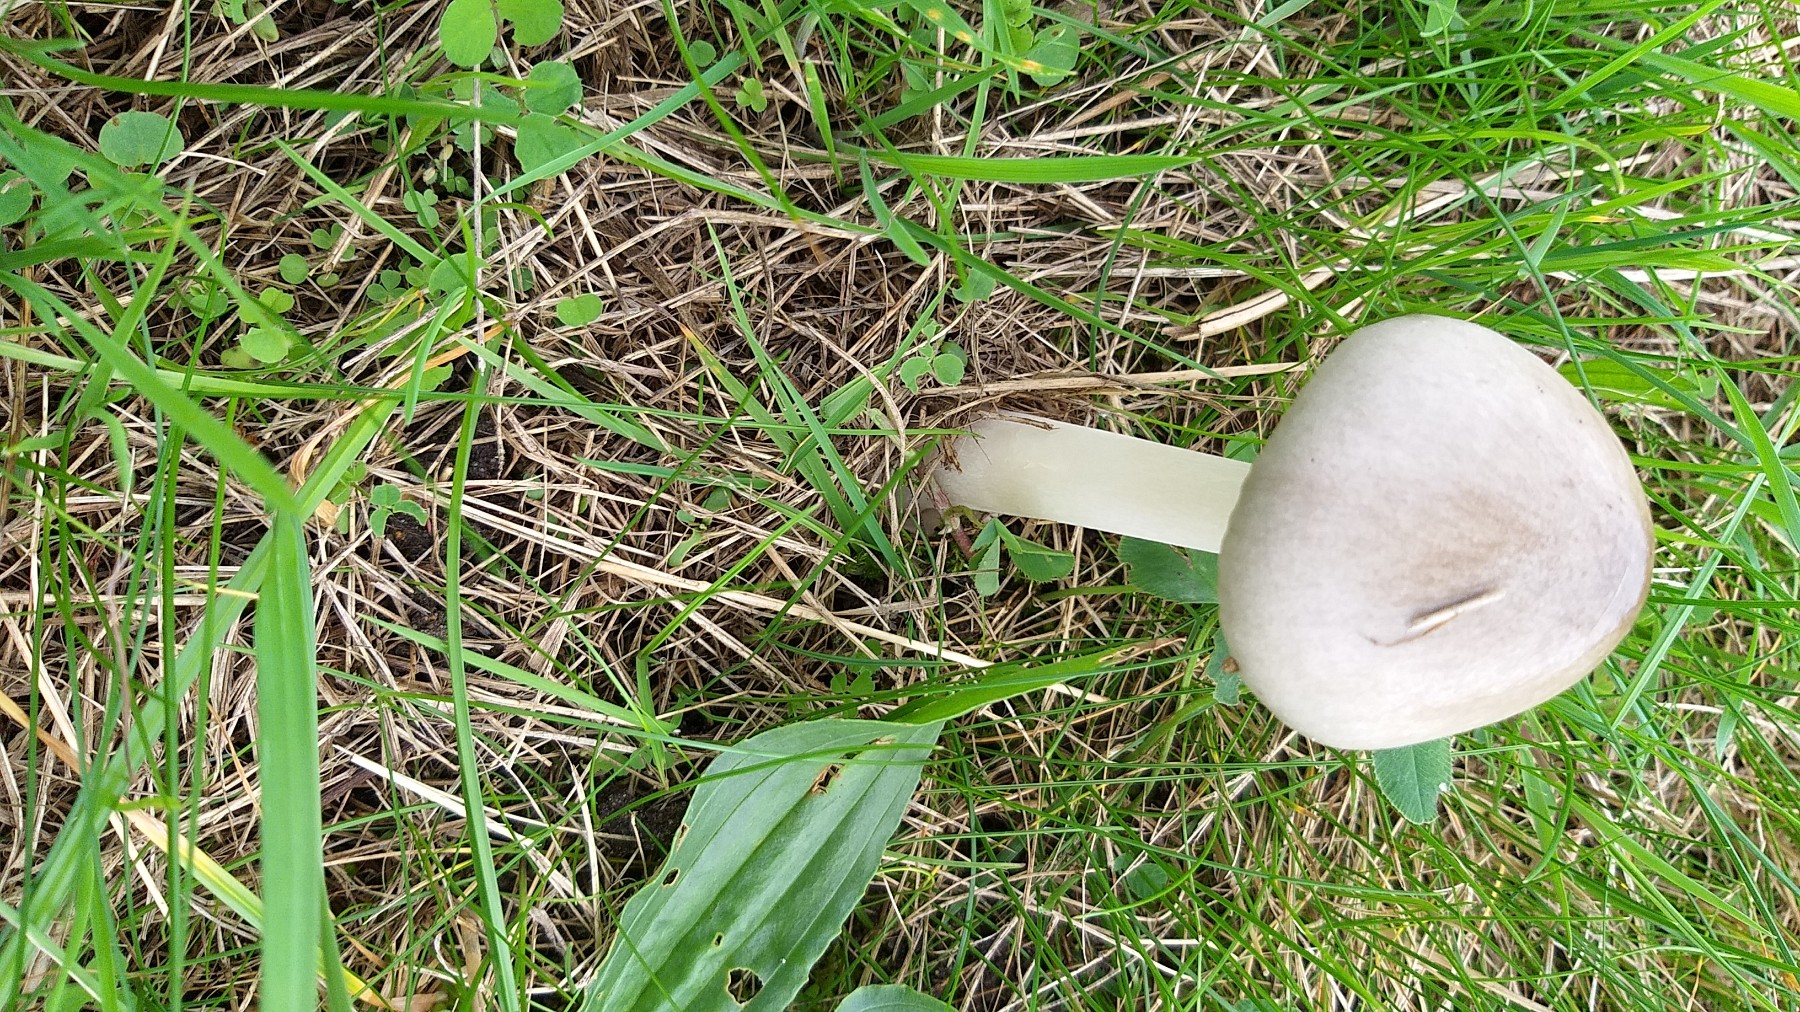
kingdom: Fungi
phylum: Basidiomycota
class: Agaricomycetes
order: Agaricales
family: Pluteaceae
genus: Volvopluteus
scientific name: Volvopluteus gloiocephalus
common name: høj posesvamp
